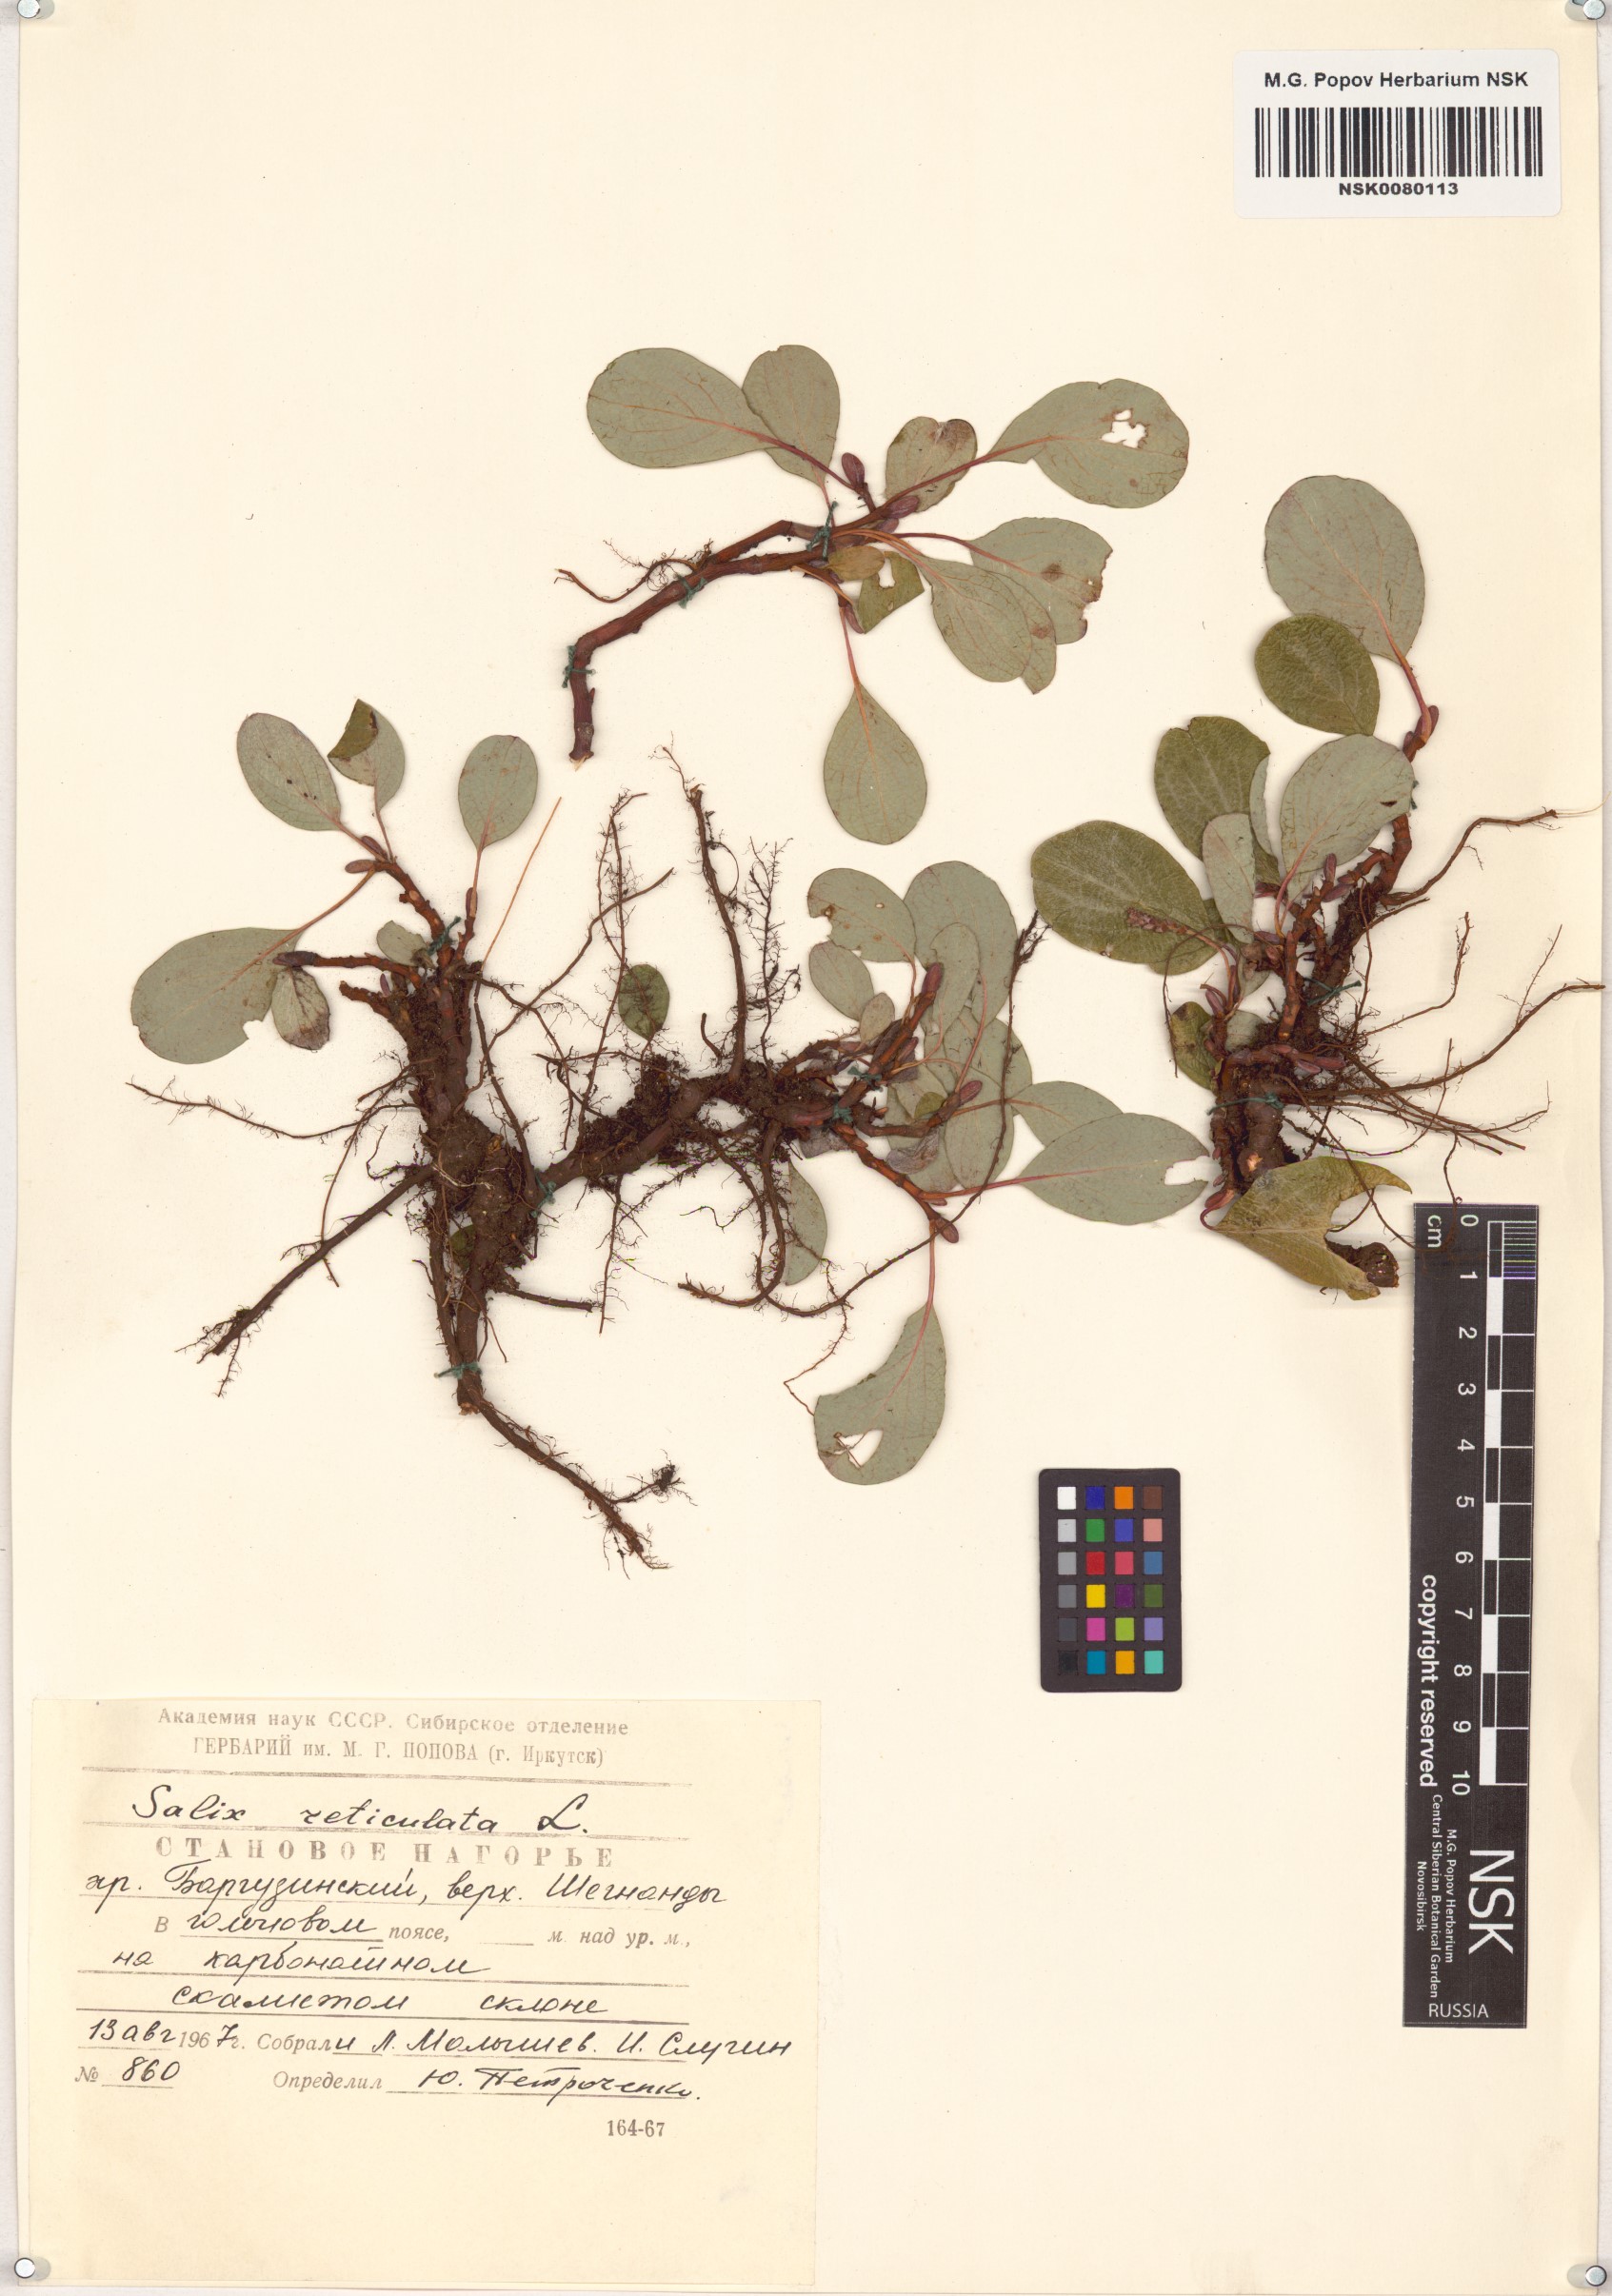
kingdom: Plantae
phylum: Tracheophyta
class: Magnoliopsida
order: Malpighiales
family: Salicaceae
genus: Salix
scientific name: Salix reticulata
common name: Net-leaved willow
